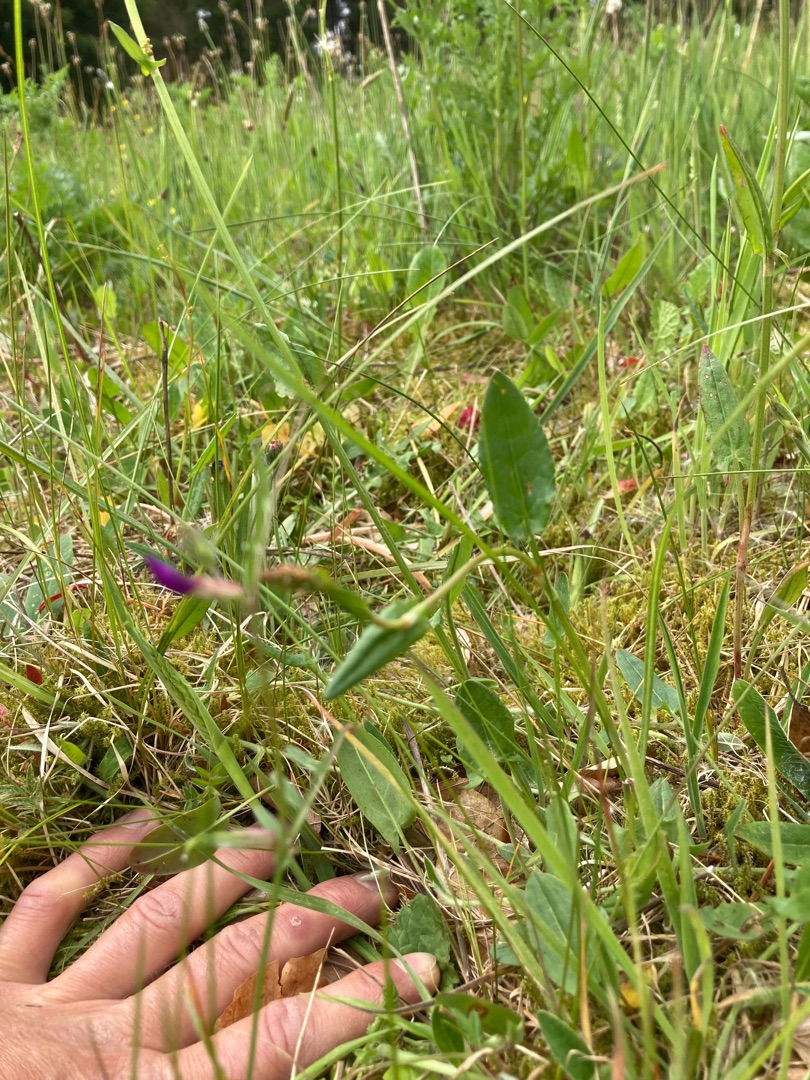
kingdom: Plantae
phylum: Tracheophyta
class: Magnoliopsida
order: Fabales
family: Fabaceae
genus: Vicia
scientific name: Vicia sativa
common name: Foder-vikke
